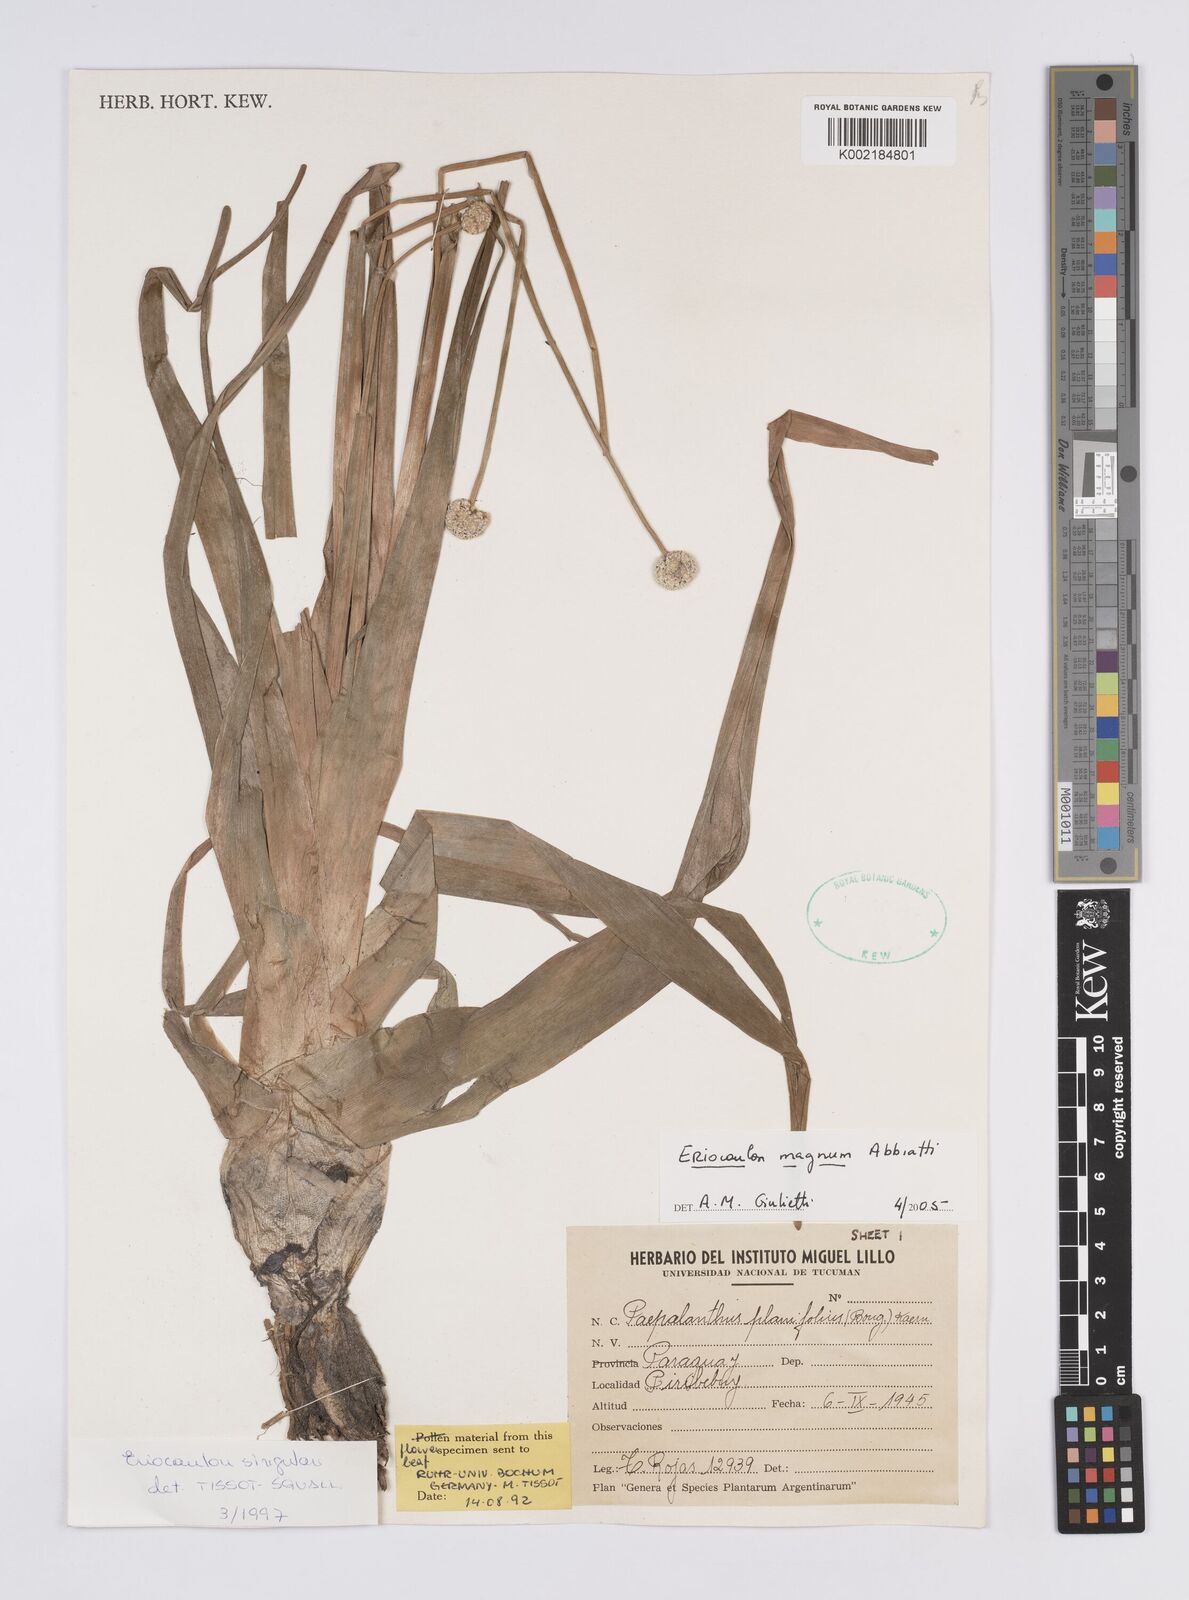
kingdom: Plantae
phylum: Tracheophyta
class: Liliopsida
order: Poales
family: Eriocaulaceae
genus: Eriocaulon
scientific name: Eriocaulon magnum
